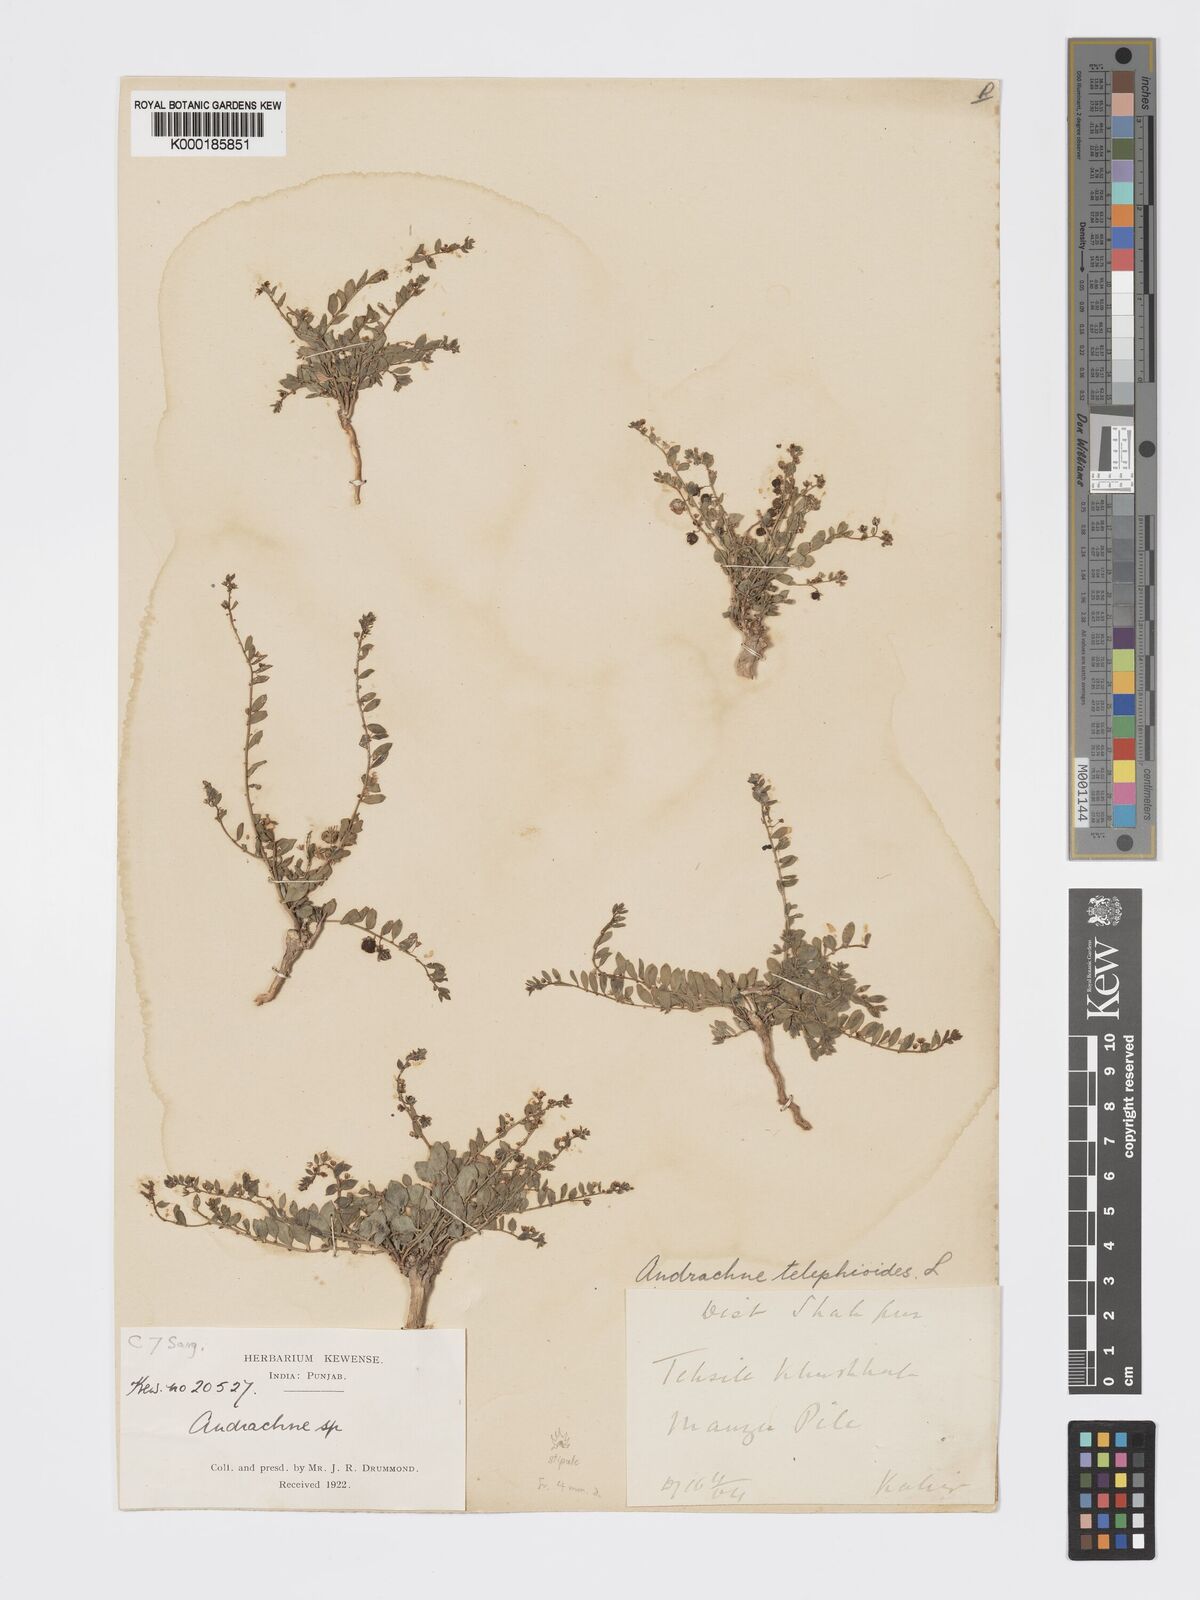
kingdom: Plantae
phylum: Tracheophyta
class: Magnoliopsida
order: Malpighiales
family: Phyllanthaceae
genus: Andrachne
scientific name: Andrachne telephioides
